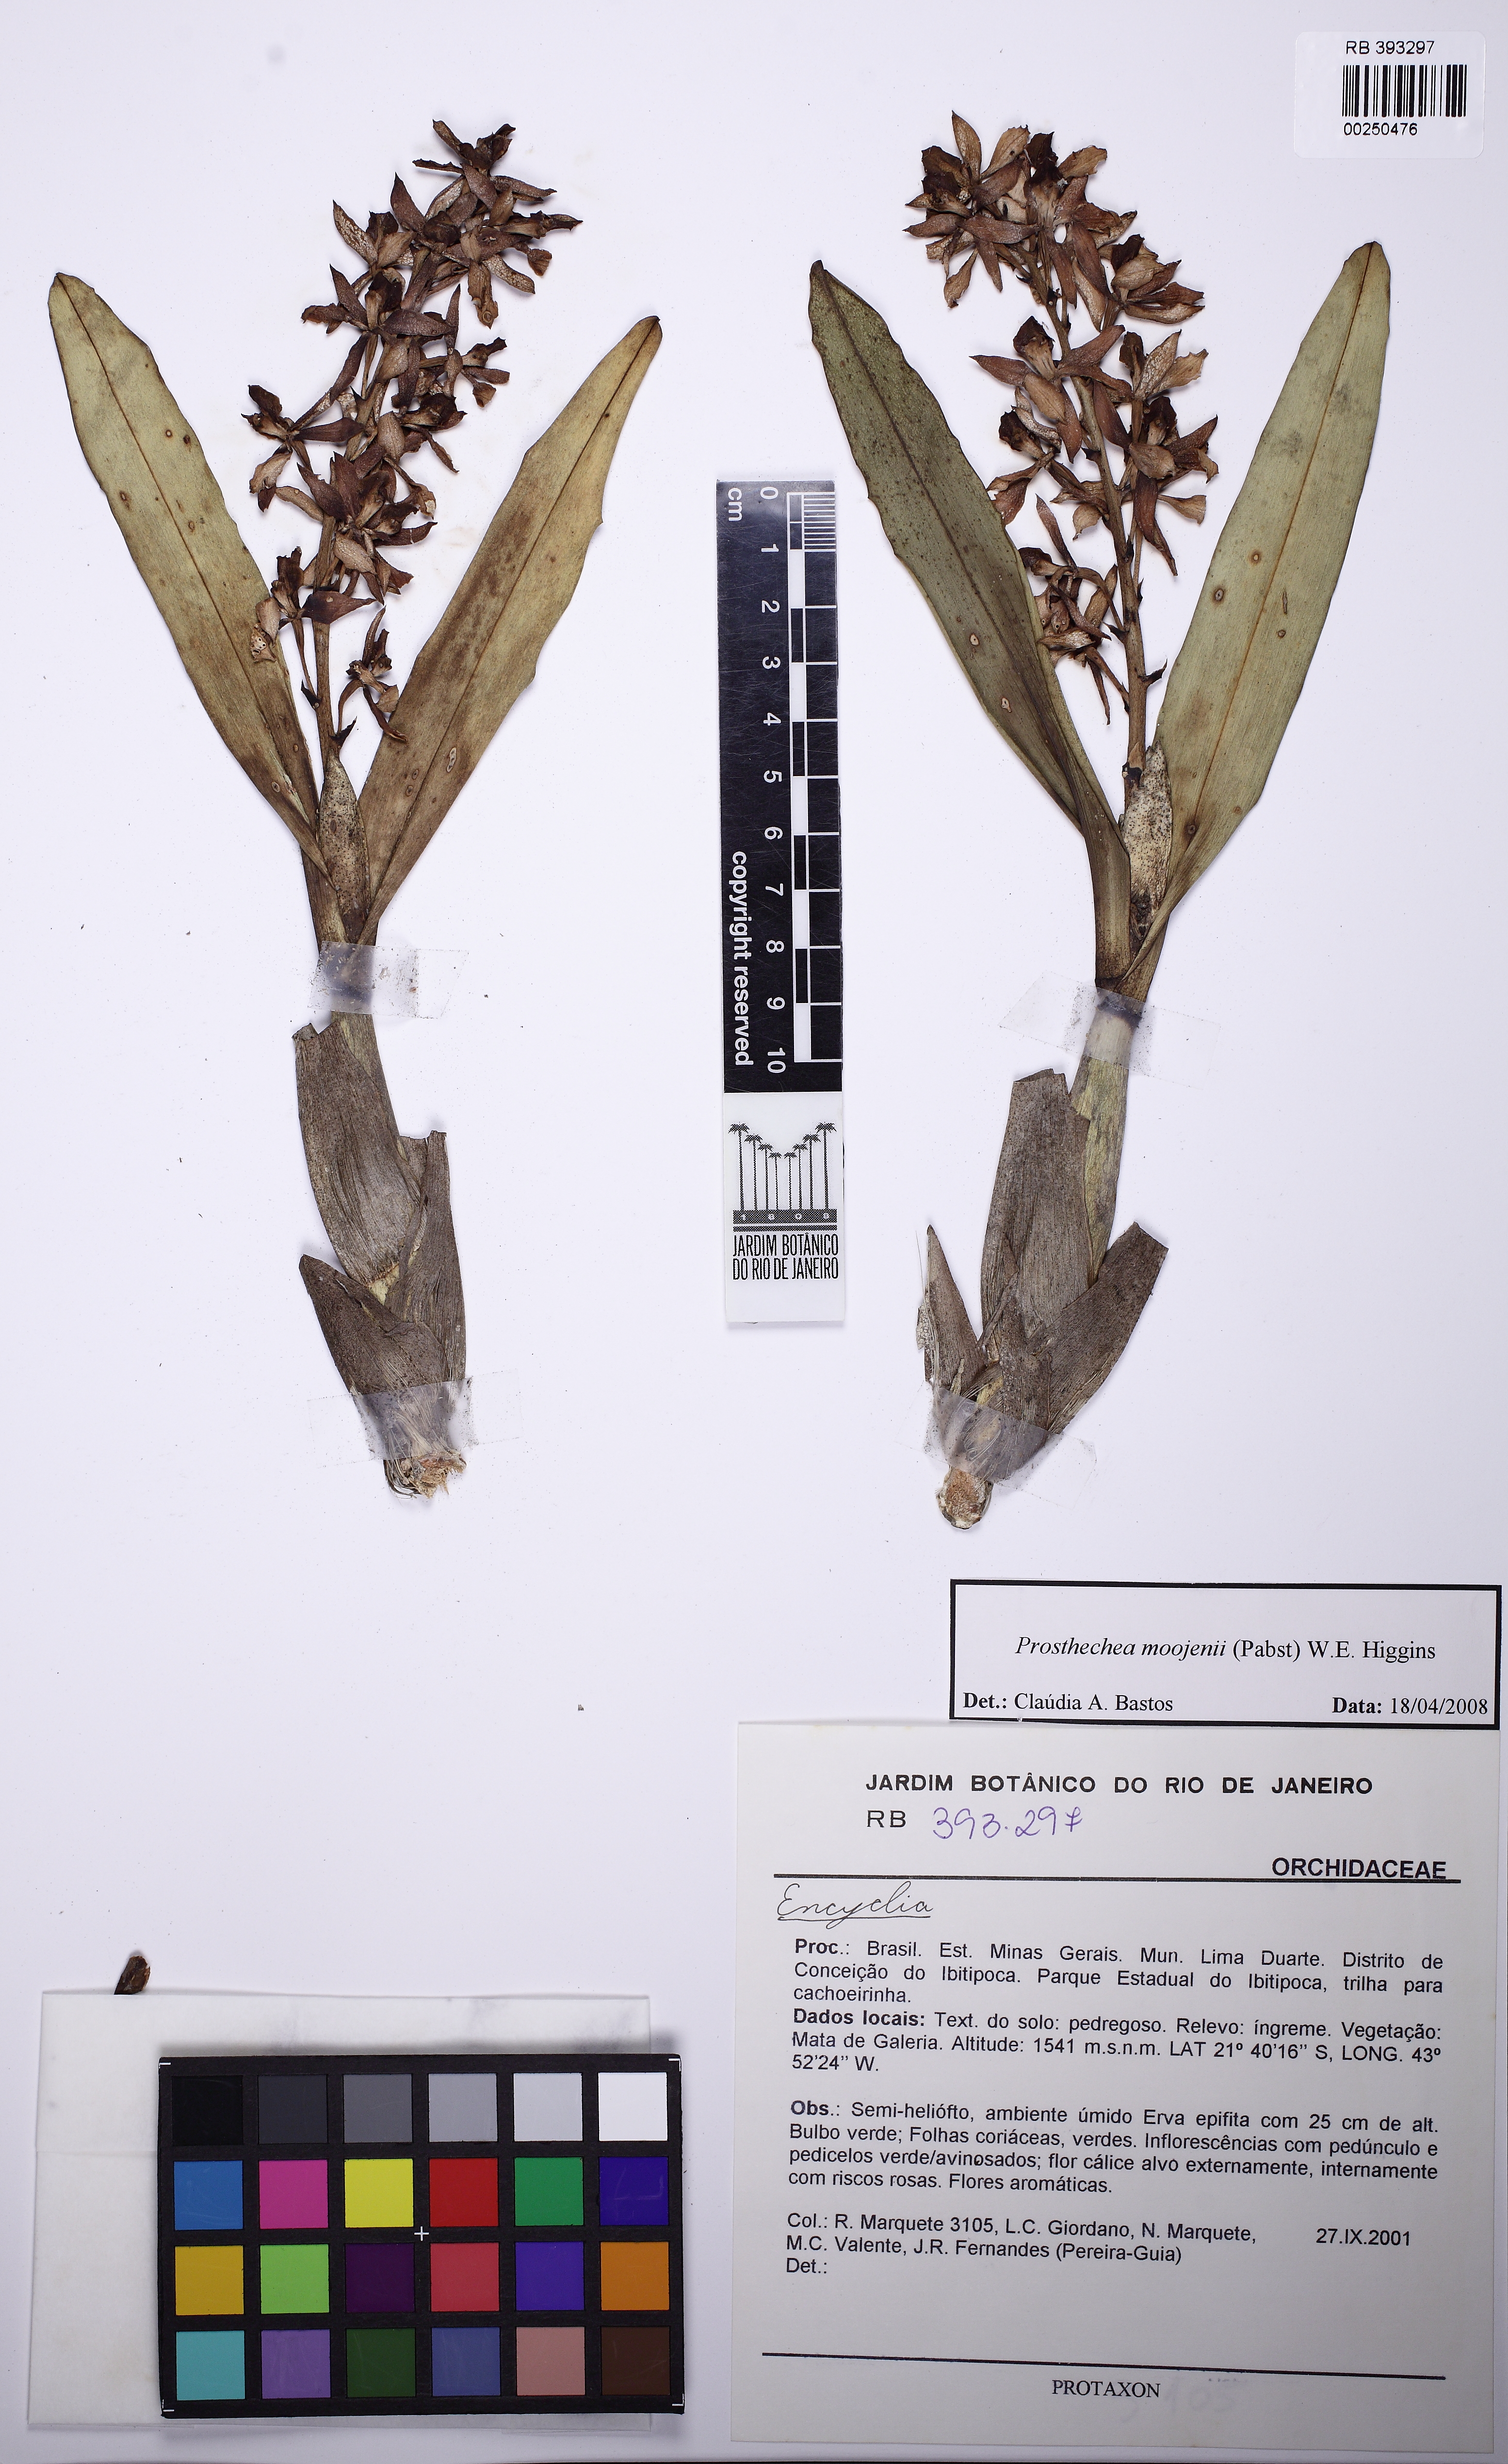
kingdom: Plantae
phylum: Tracheophyta
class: Liliopsida
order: Asparagales
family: Orchidaceae
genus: Prosthechea
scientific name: Prosthechea moojenii
